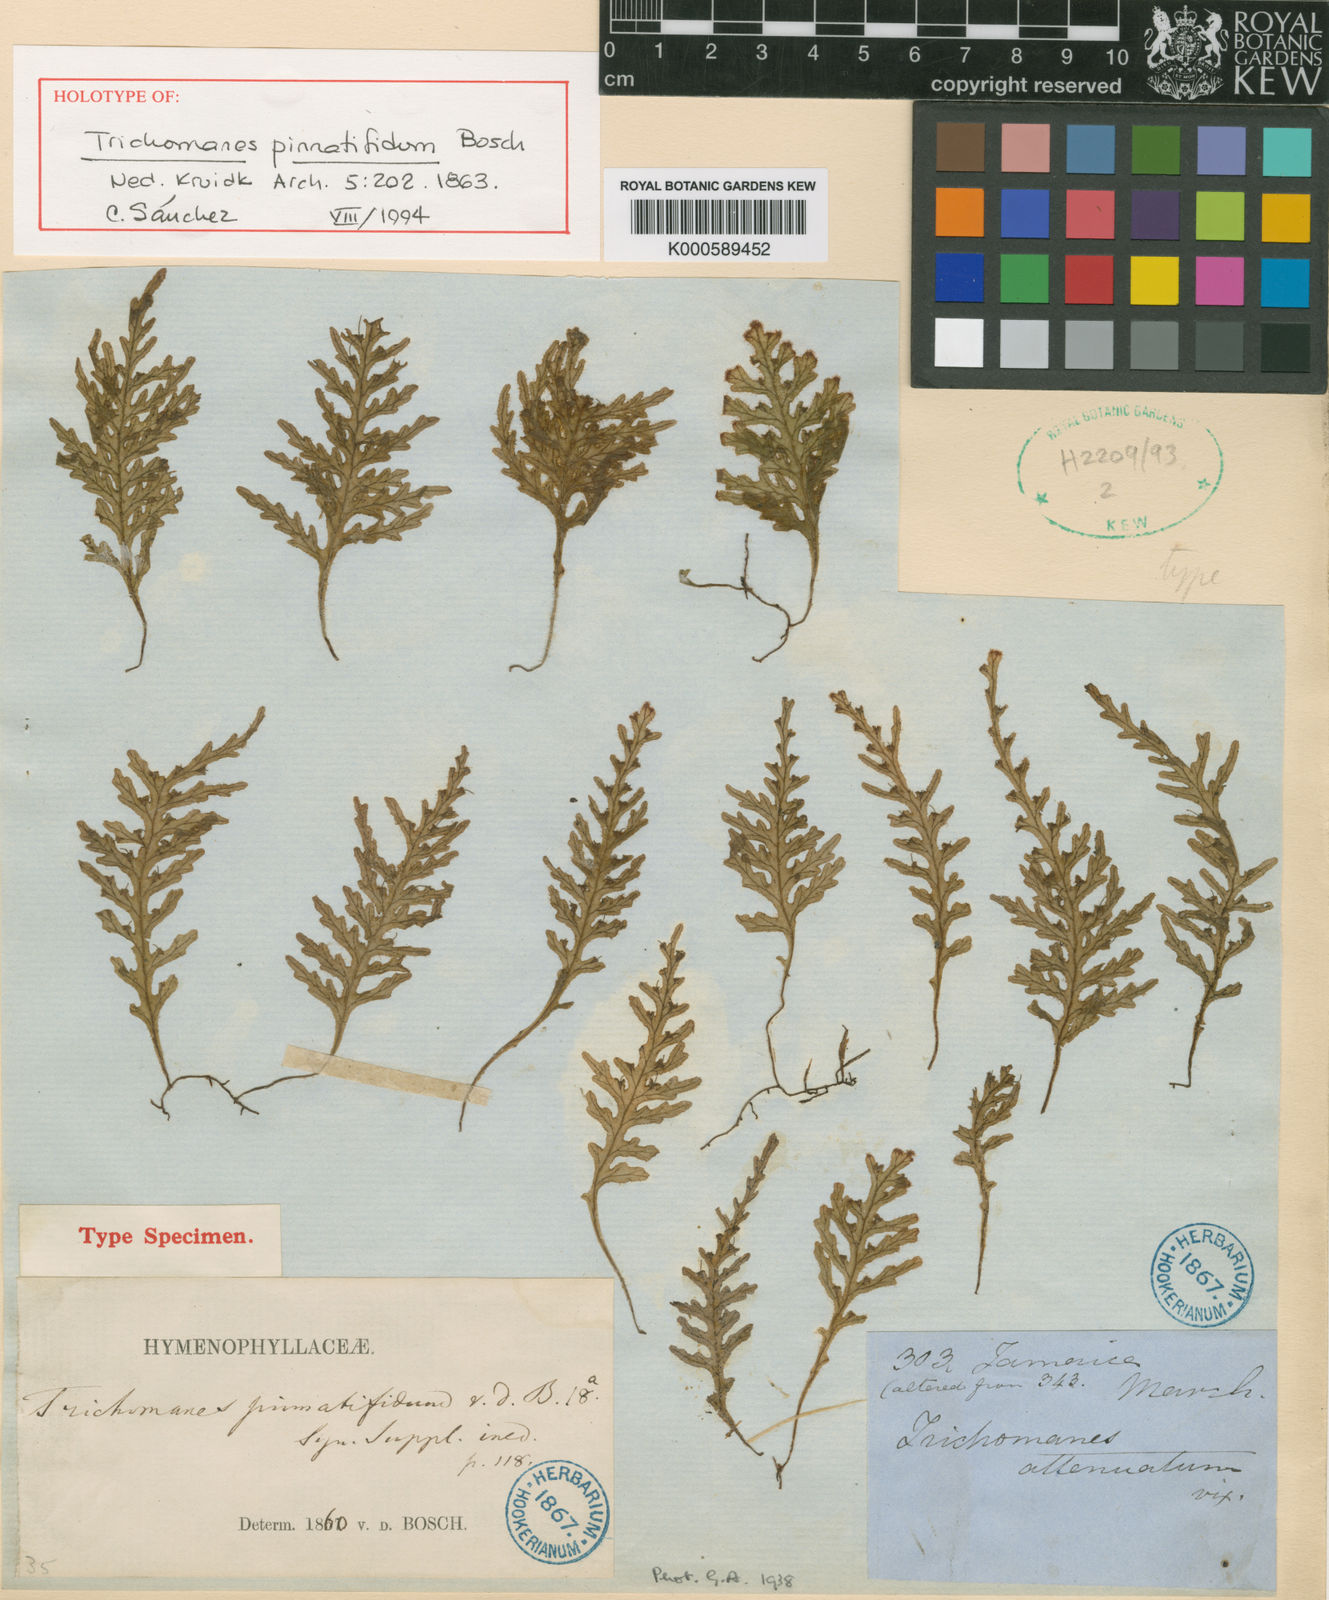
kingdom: Plantae
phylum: Tracheophyta
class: Polypodiopsida
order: Hymenophyllales
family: Hymenophyllaceae
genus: Trichomanes
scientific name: Trichomanes pinnatifidum
